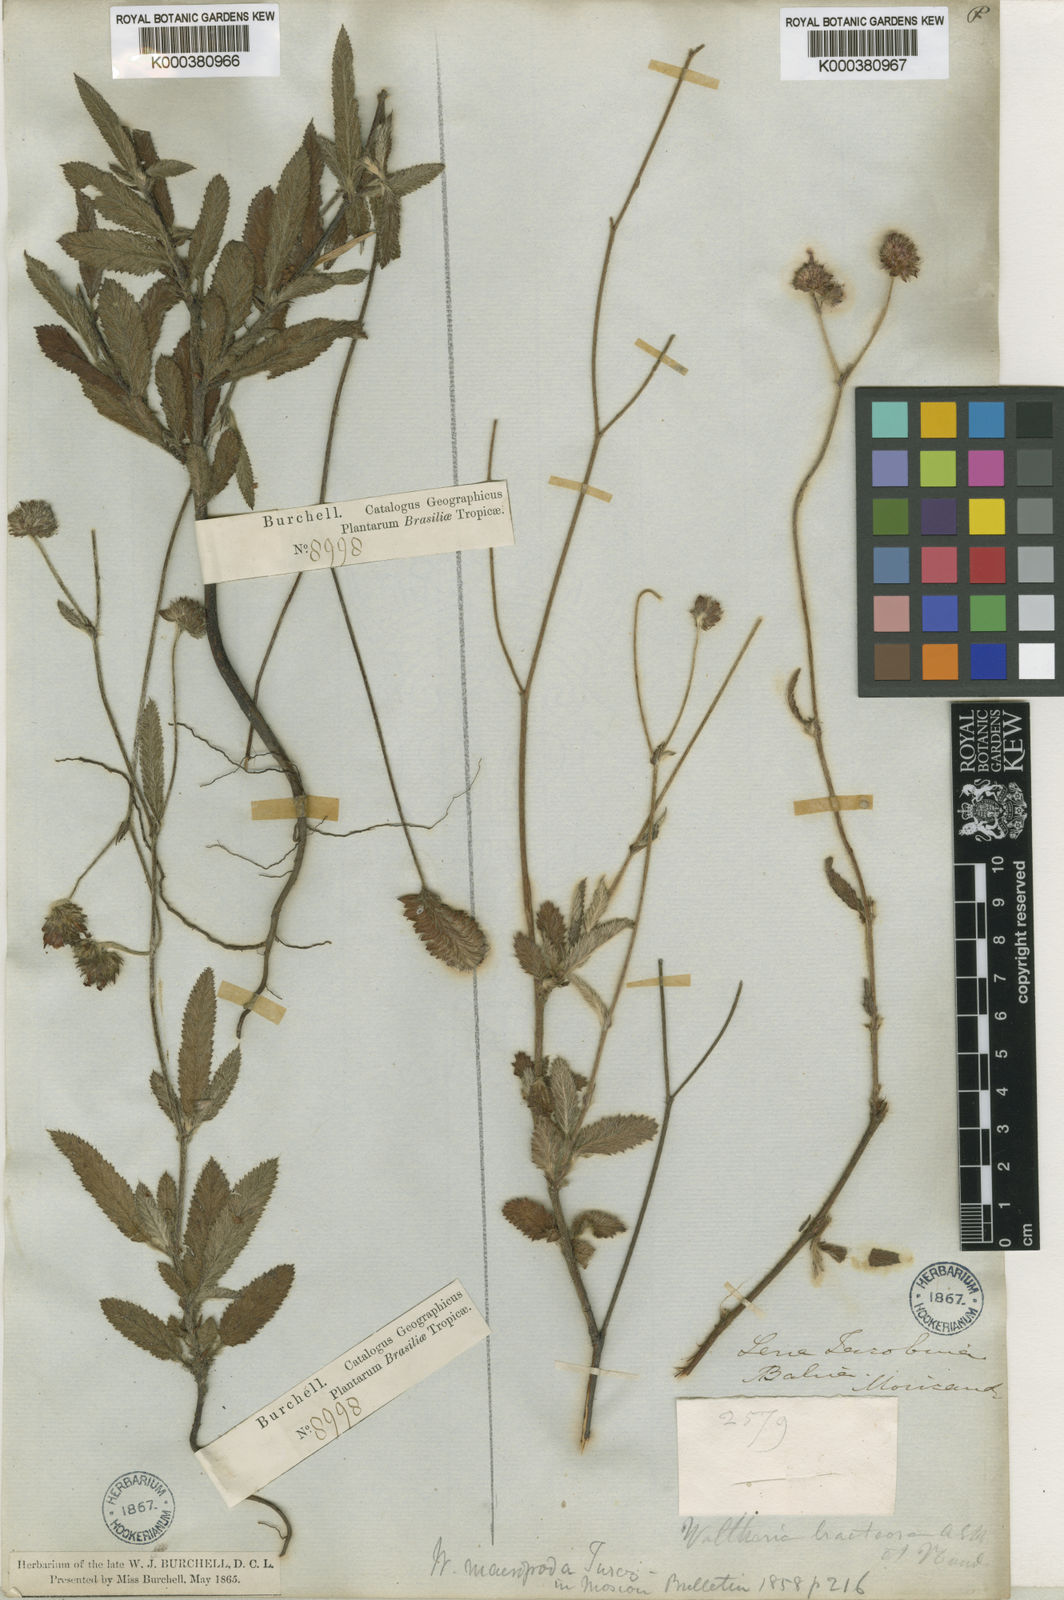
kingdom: Plantae
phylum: Tracheophyta
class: Magnoliopsida
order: Malvales
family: Malvaceae
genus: Waltheria
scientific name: Waltheria bracteosa
